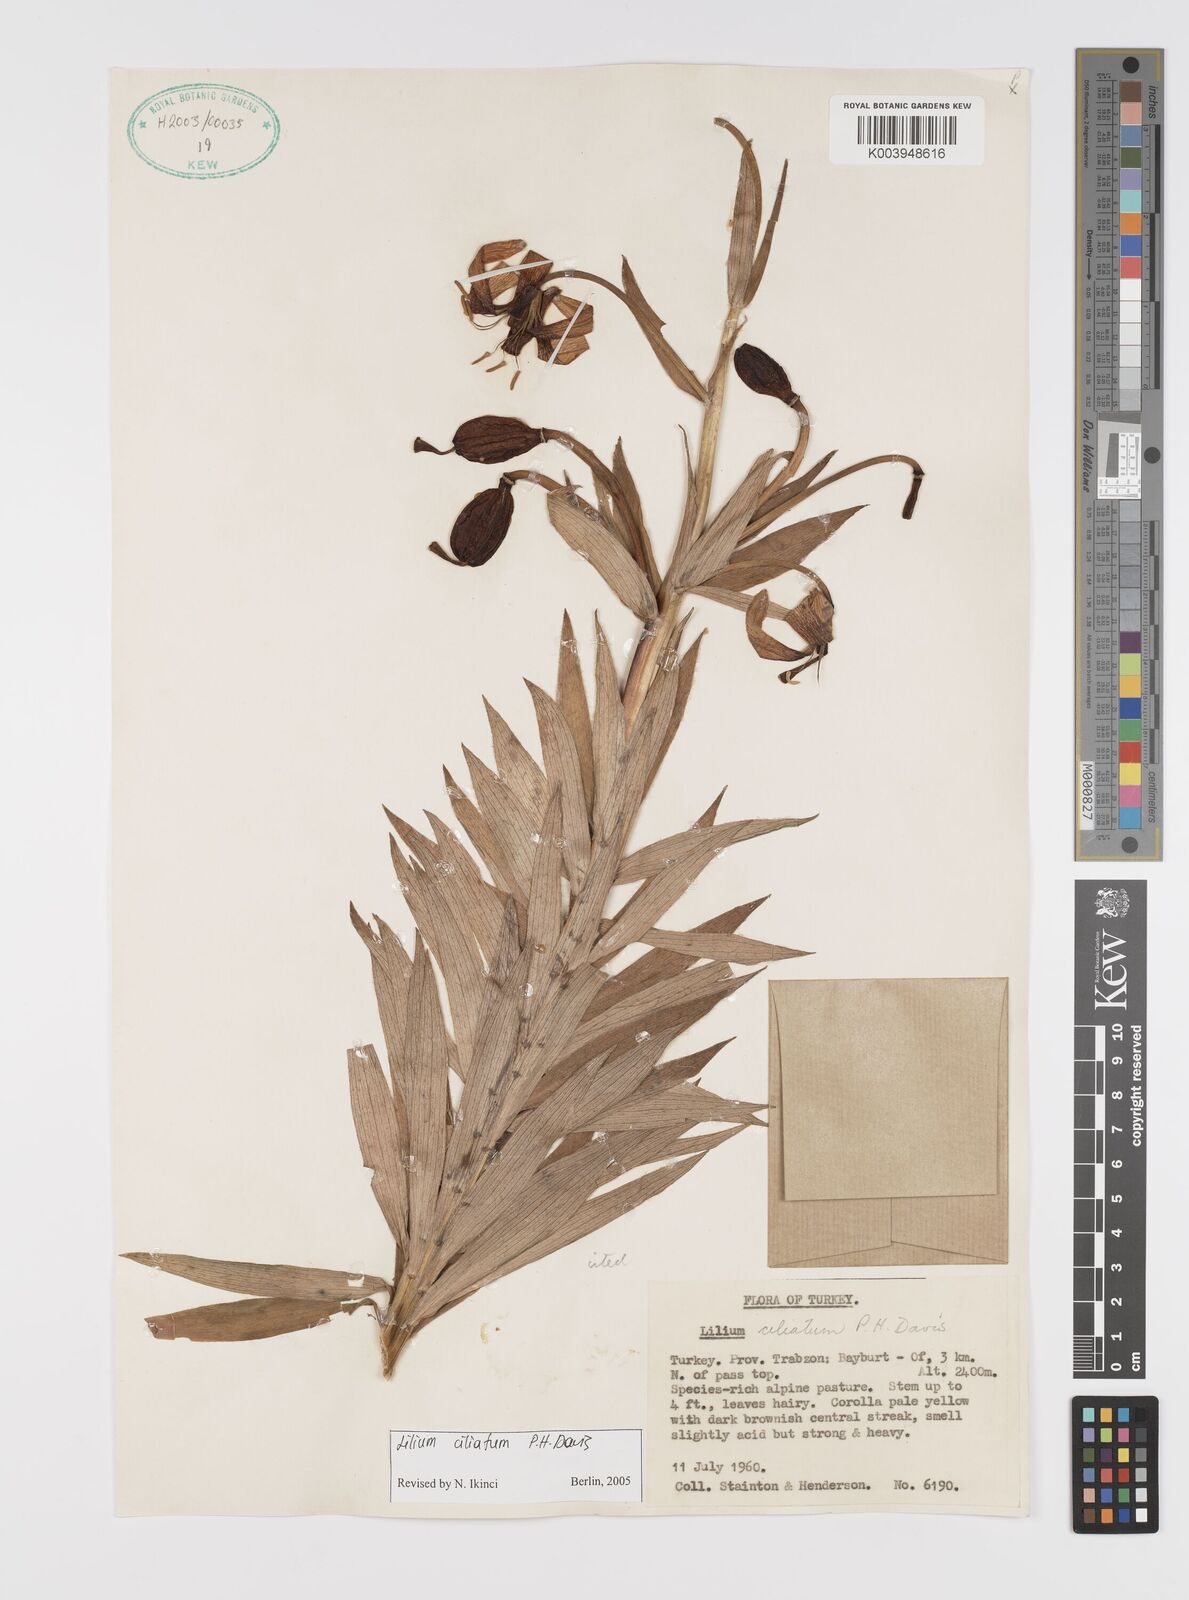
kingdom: Plantae
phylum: Tracheophyta
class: Liliopsida
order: Liliales
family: Liliaceae
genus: Lilium
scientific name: Lilium ciliatum
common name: Ciliate lily
